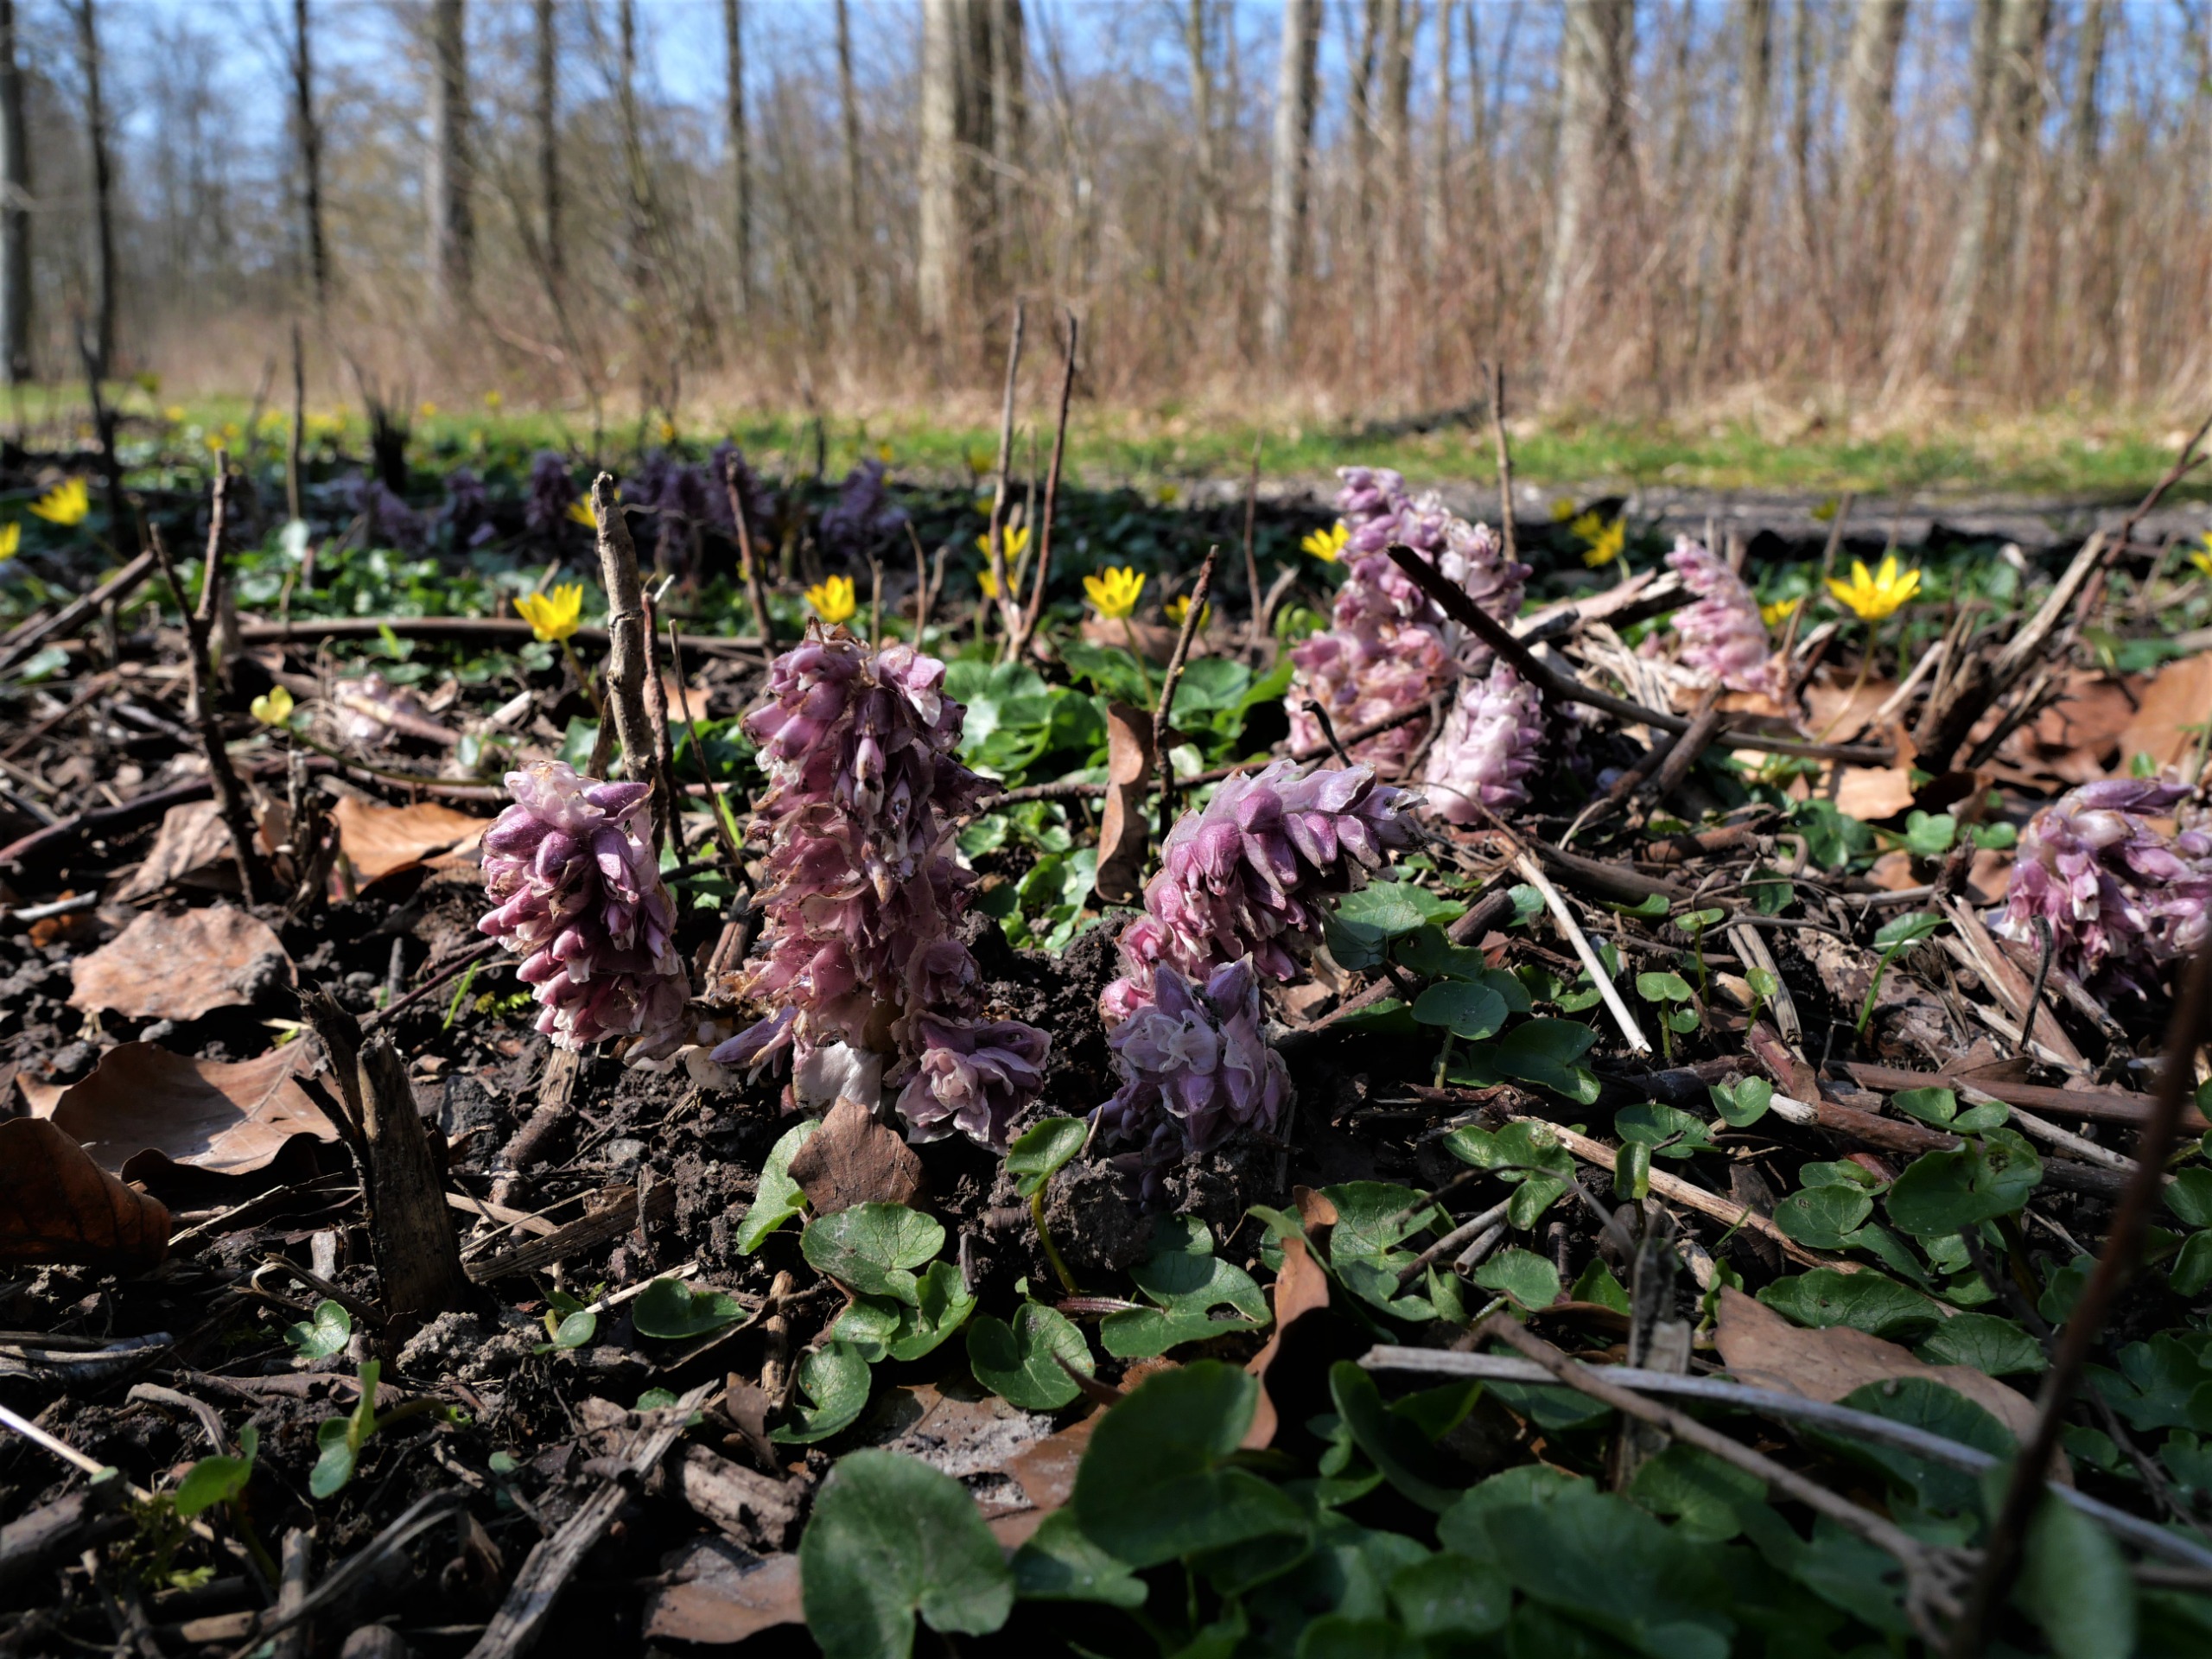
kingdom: Plantae
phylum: Tracheophyta
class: Magnoliopsida
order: Lamiales
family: Orobanchaceae
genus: Lathraea
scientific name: Lathraea squamaria
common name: Skælrod
